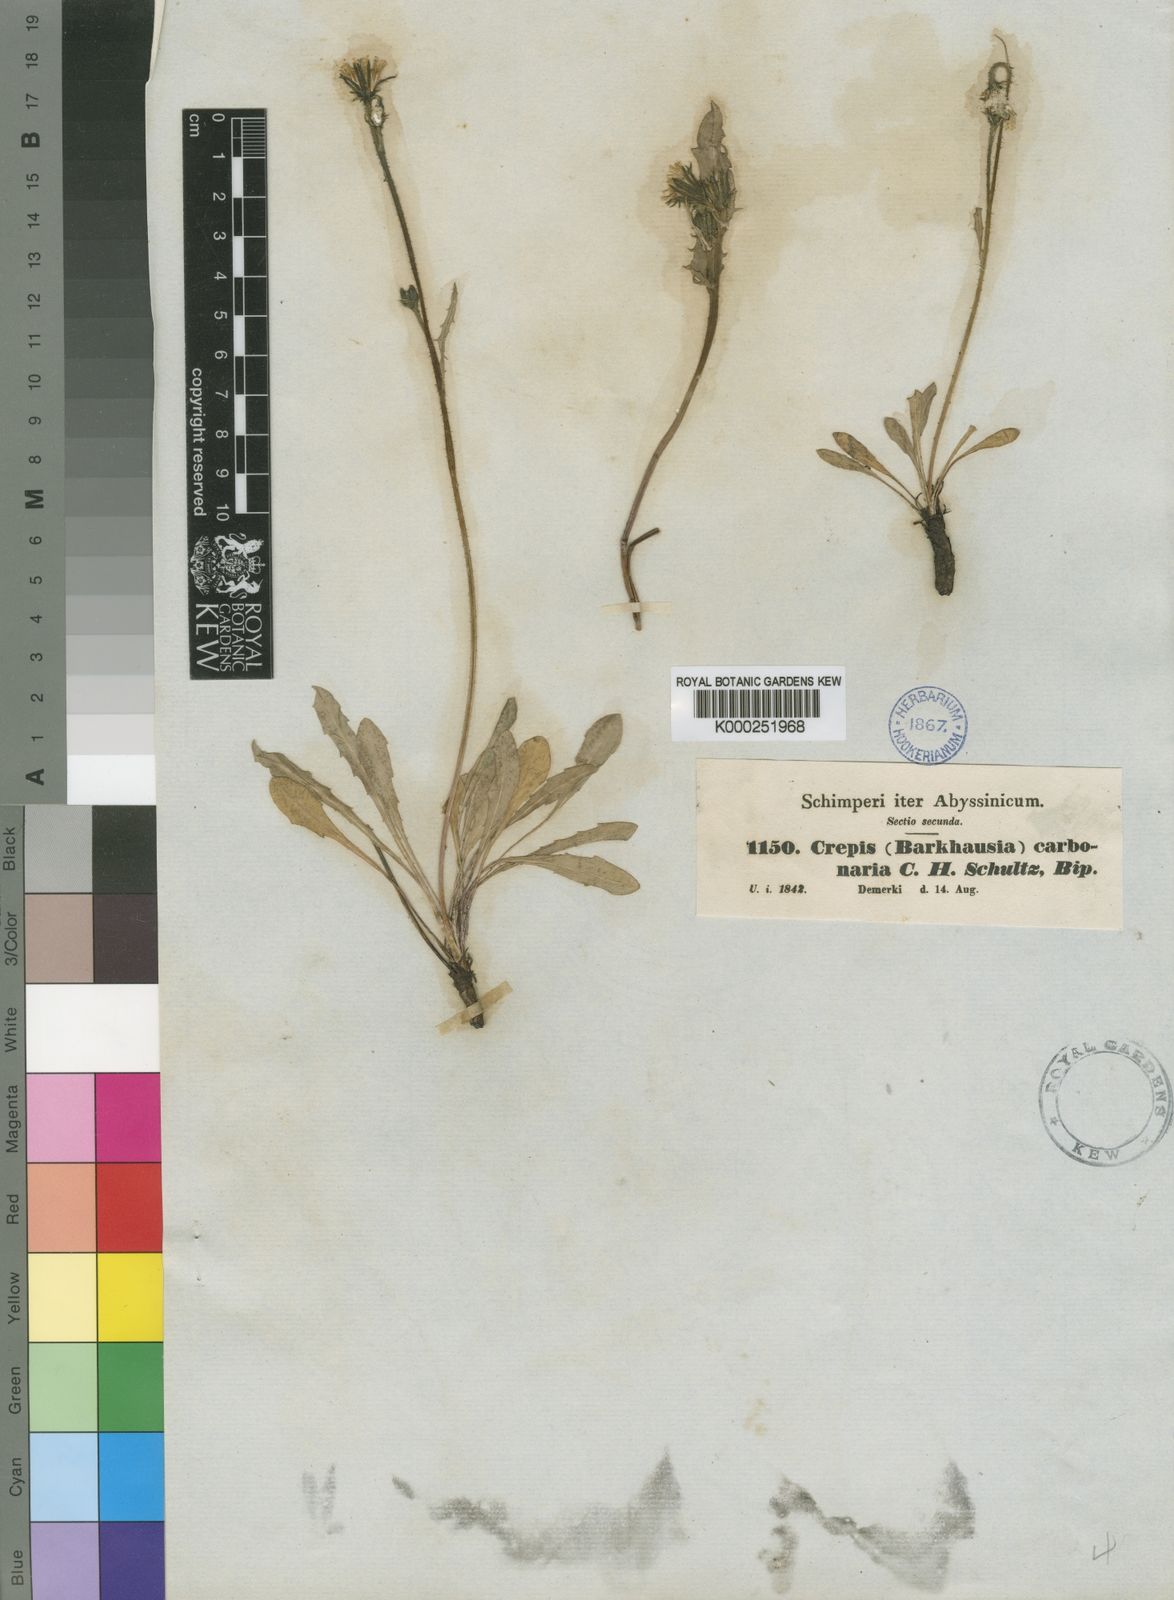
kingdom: Plantae
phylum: Tracheophyta
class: Magnoliopsida
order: Asterales
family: Asteraceae
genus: Crepis
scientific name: Crepis carbonaria
